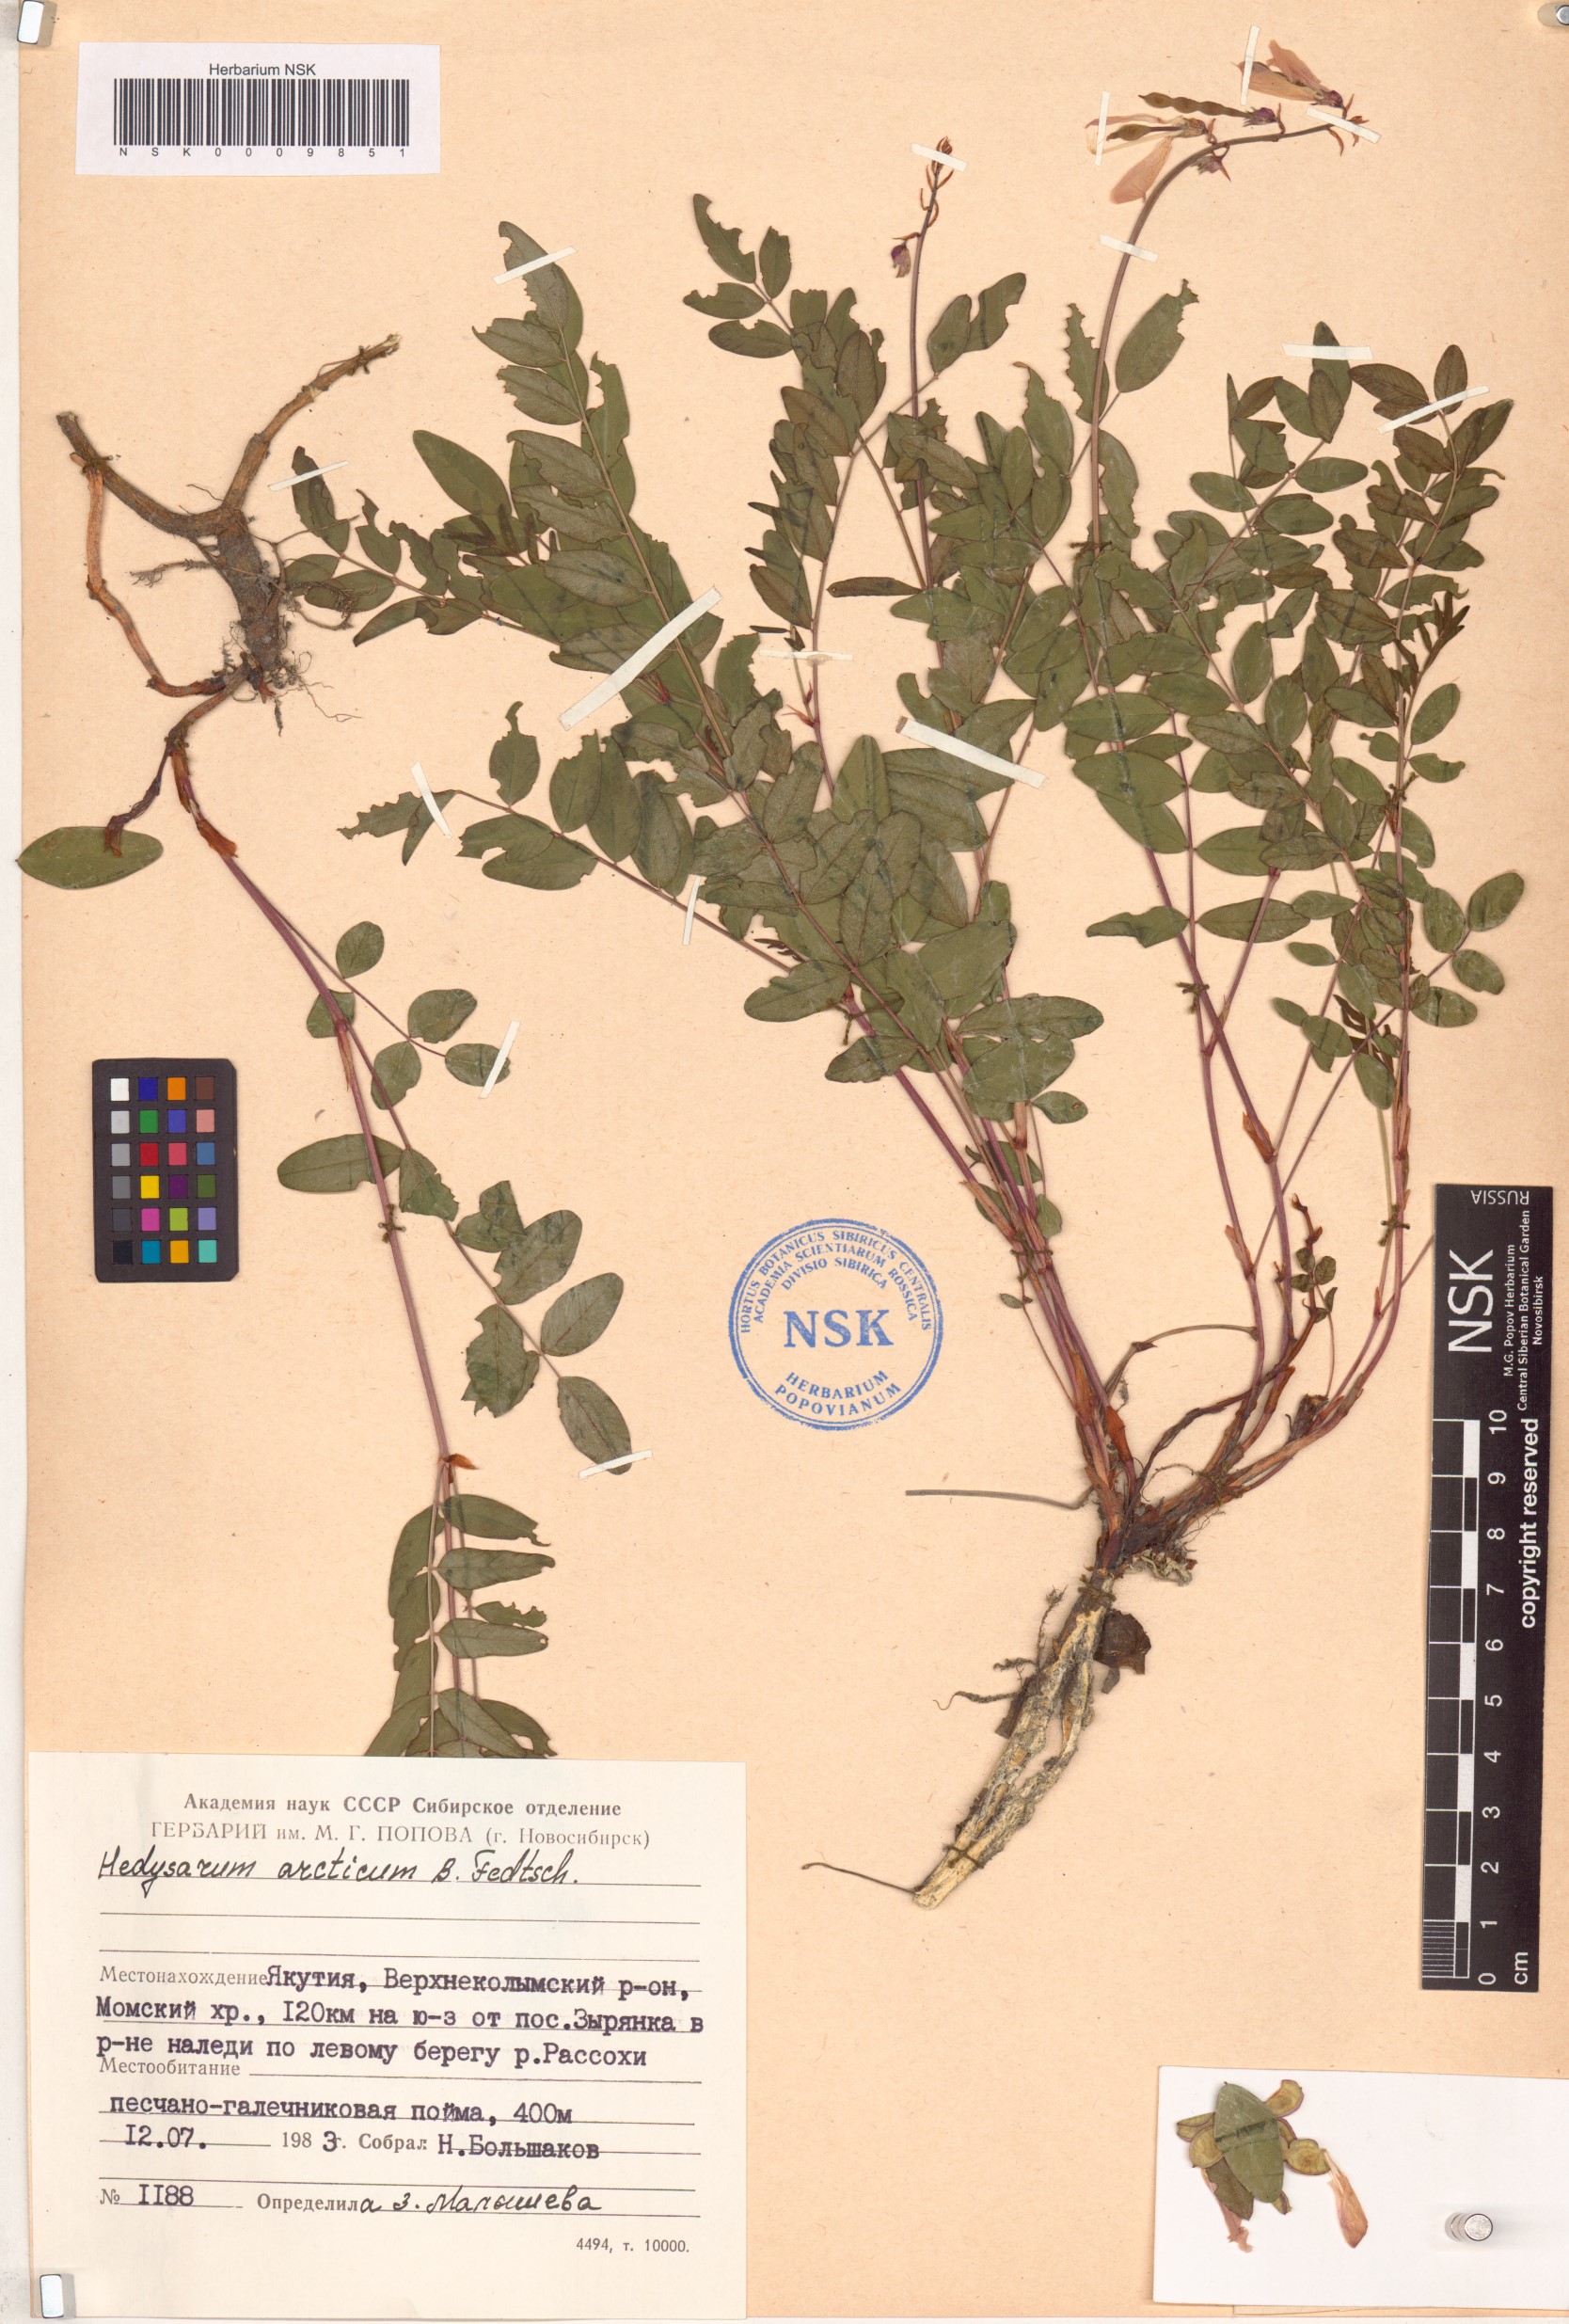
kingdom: Plantae
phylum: Tracheophyta
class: Magnoliopsida
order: Fabales
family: Fabaceae
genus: Hedysarum
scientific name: Hedysarum hedysaroides
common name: Alpine french-honeysuckle
